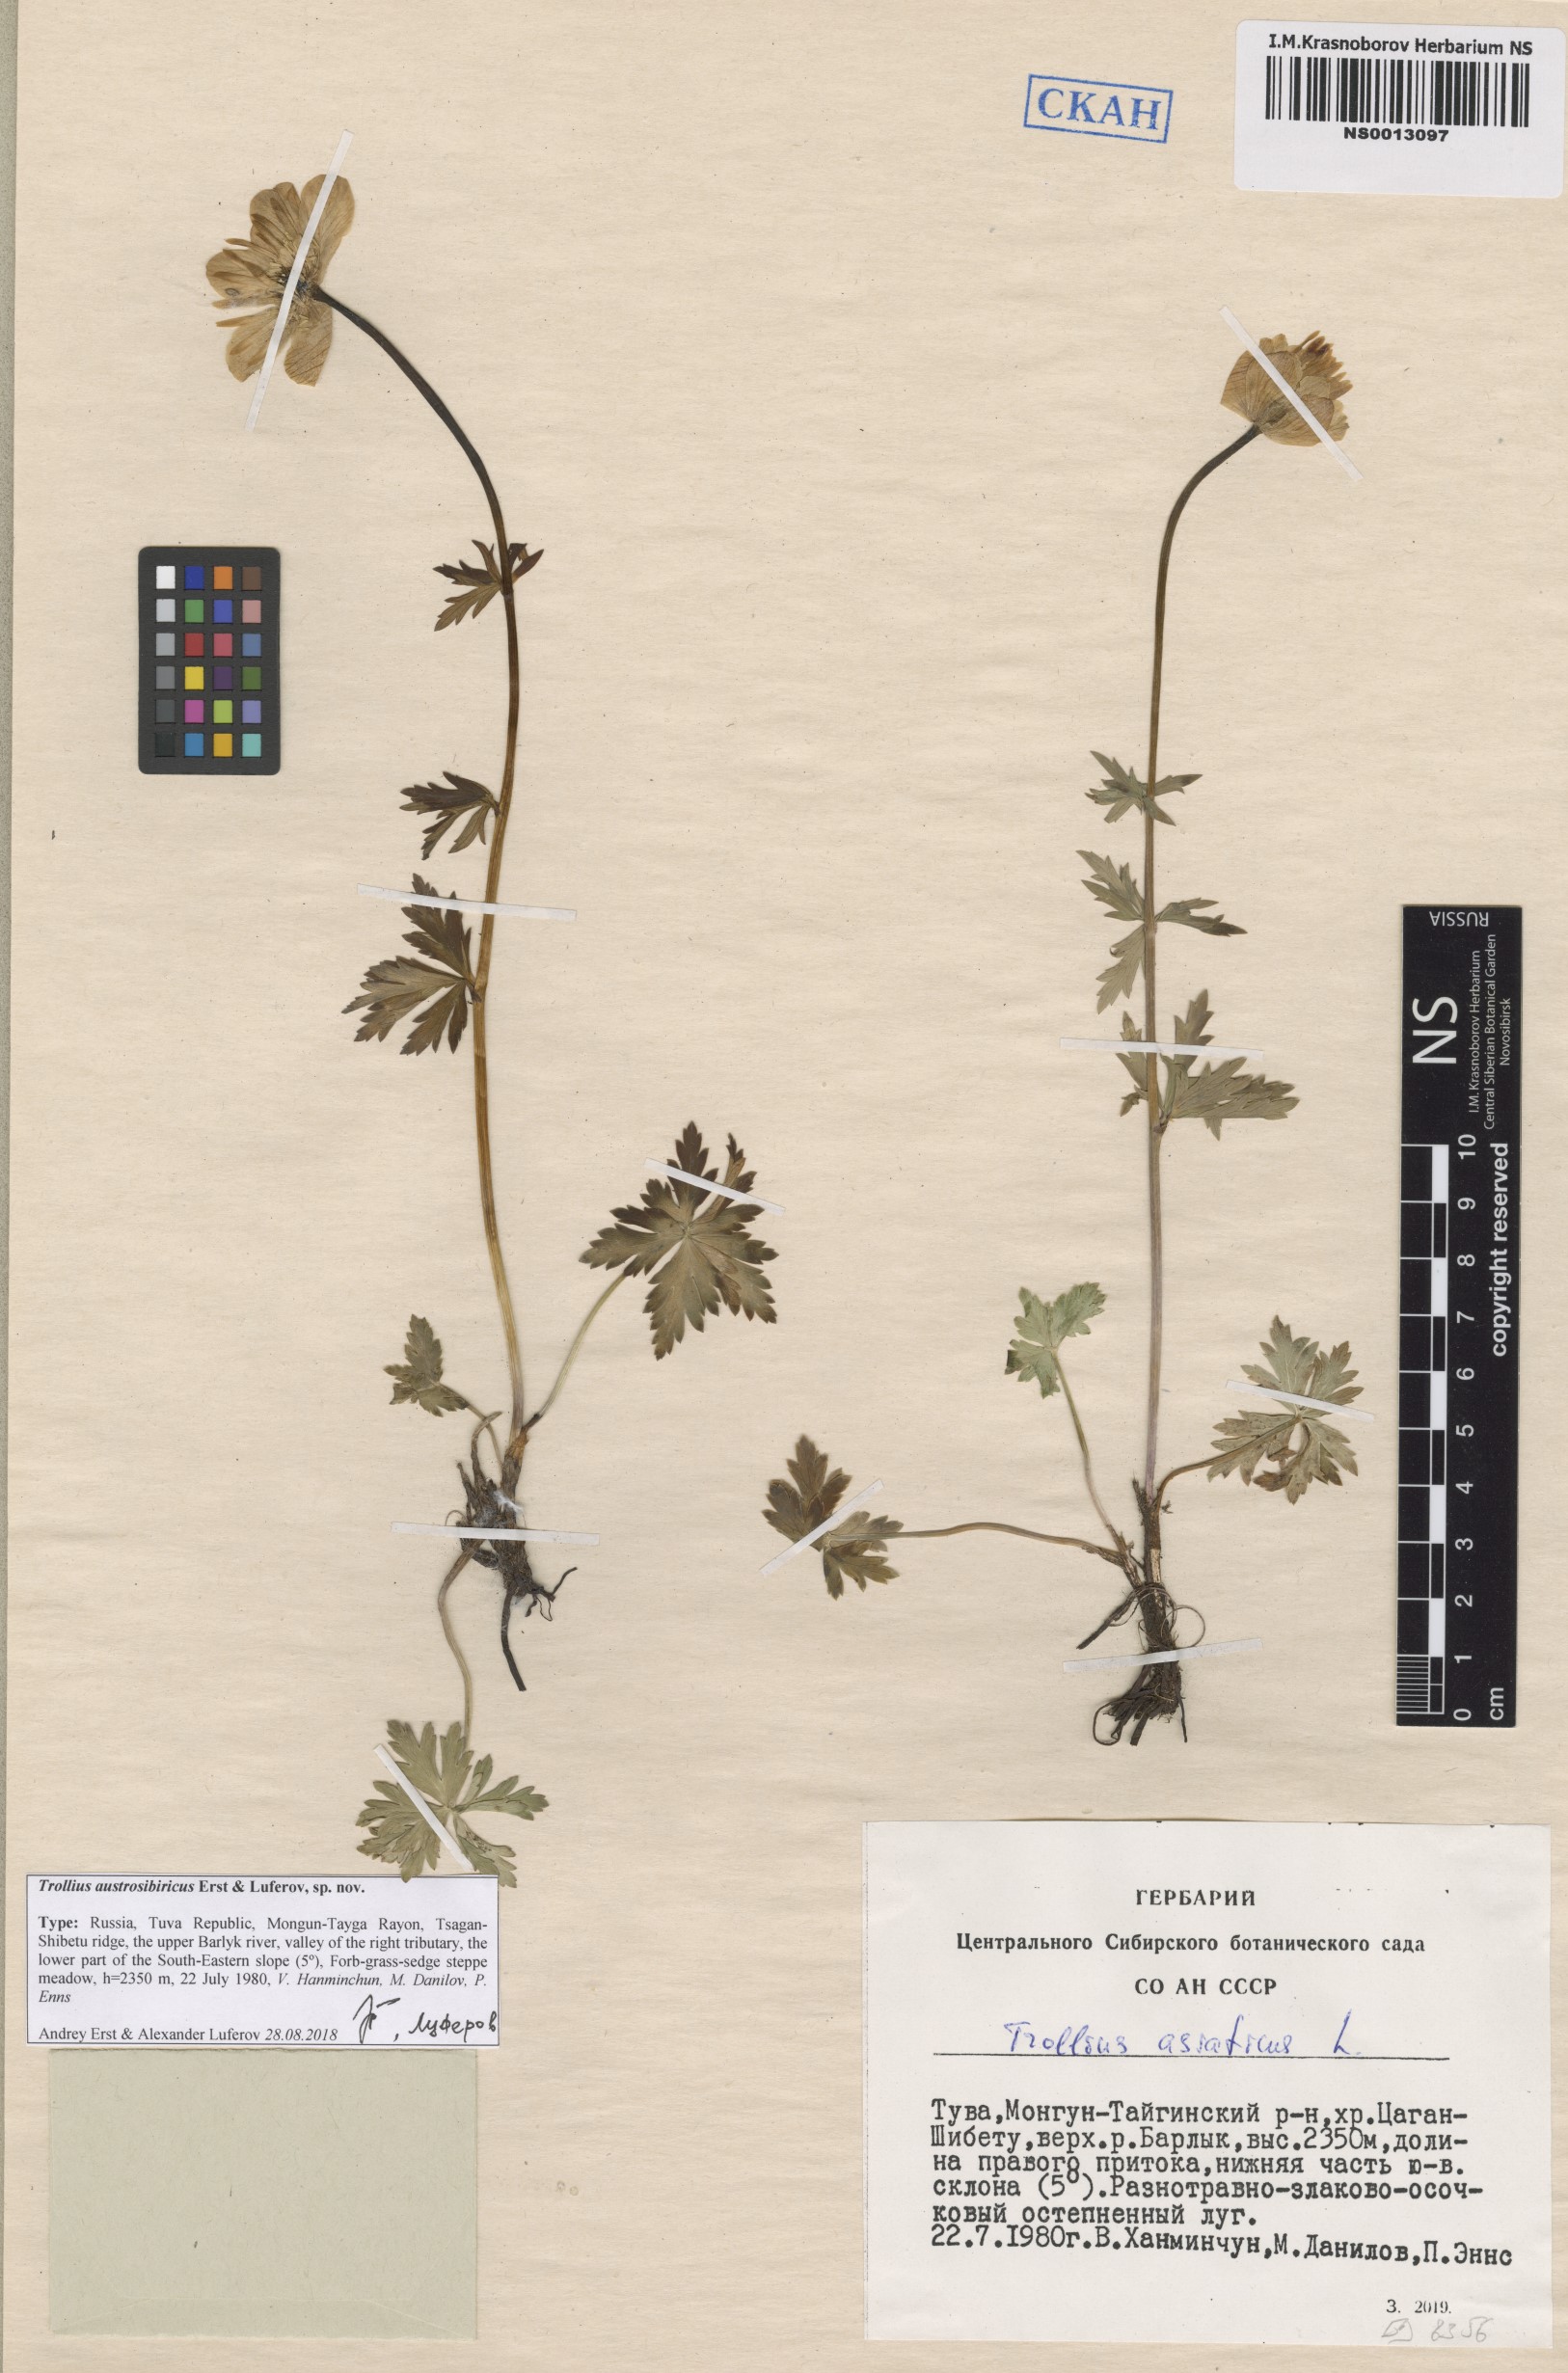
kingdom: Plantae
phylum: Tracheophyta
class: Magnoliopsida
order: Ranunculales
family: Ranunculaceae
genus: Trollius
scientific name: Trollius austrosibiricus
